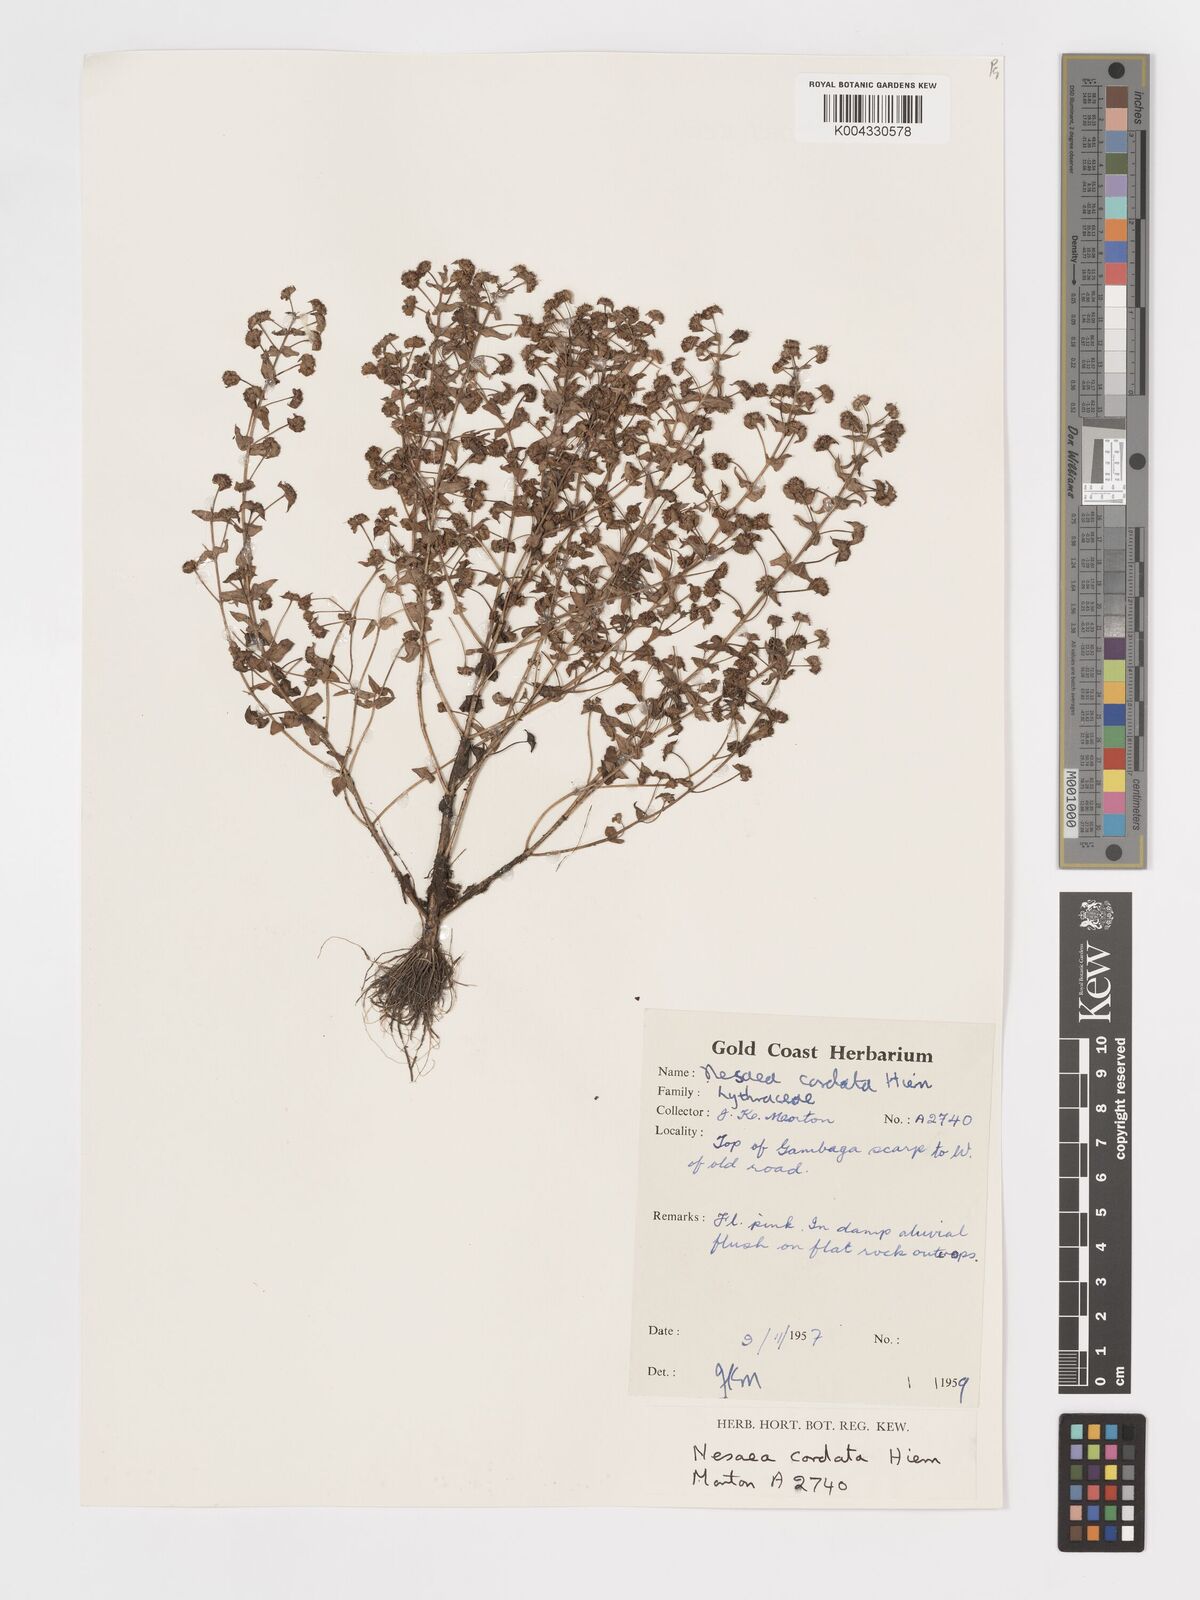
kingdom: Plantae
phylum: Tracheophyta
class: Magnoliopsida
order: Myrtales
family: Lythraceae
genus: Nesaea
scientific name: Nesaea
